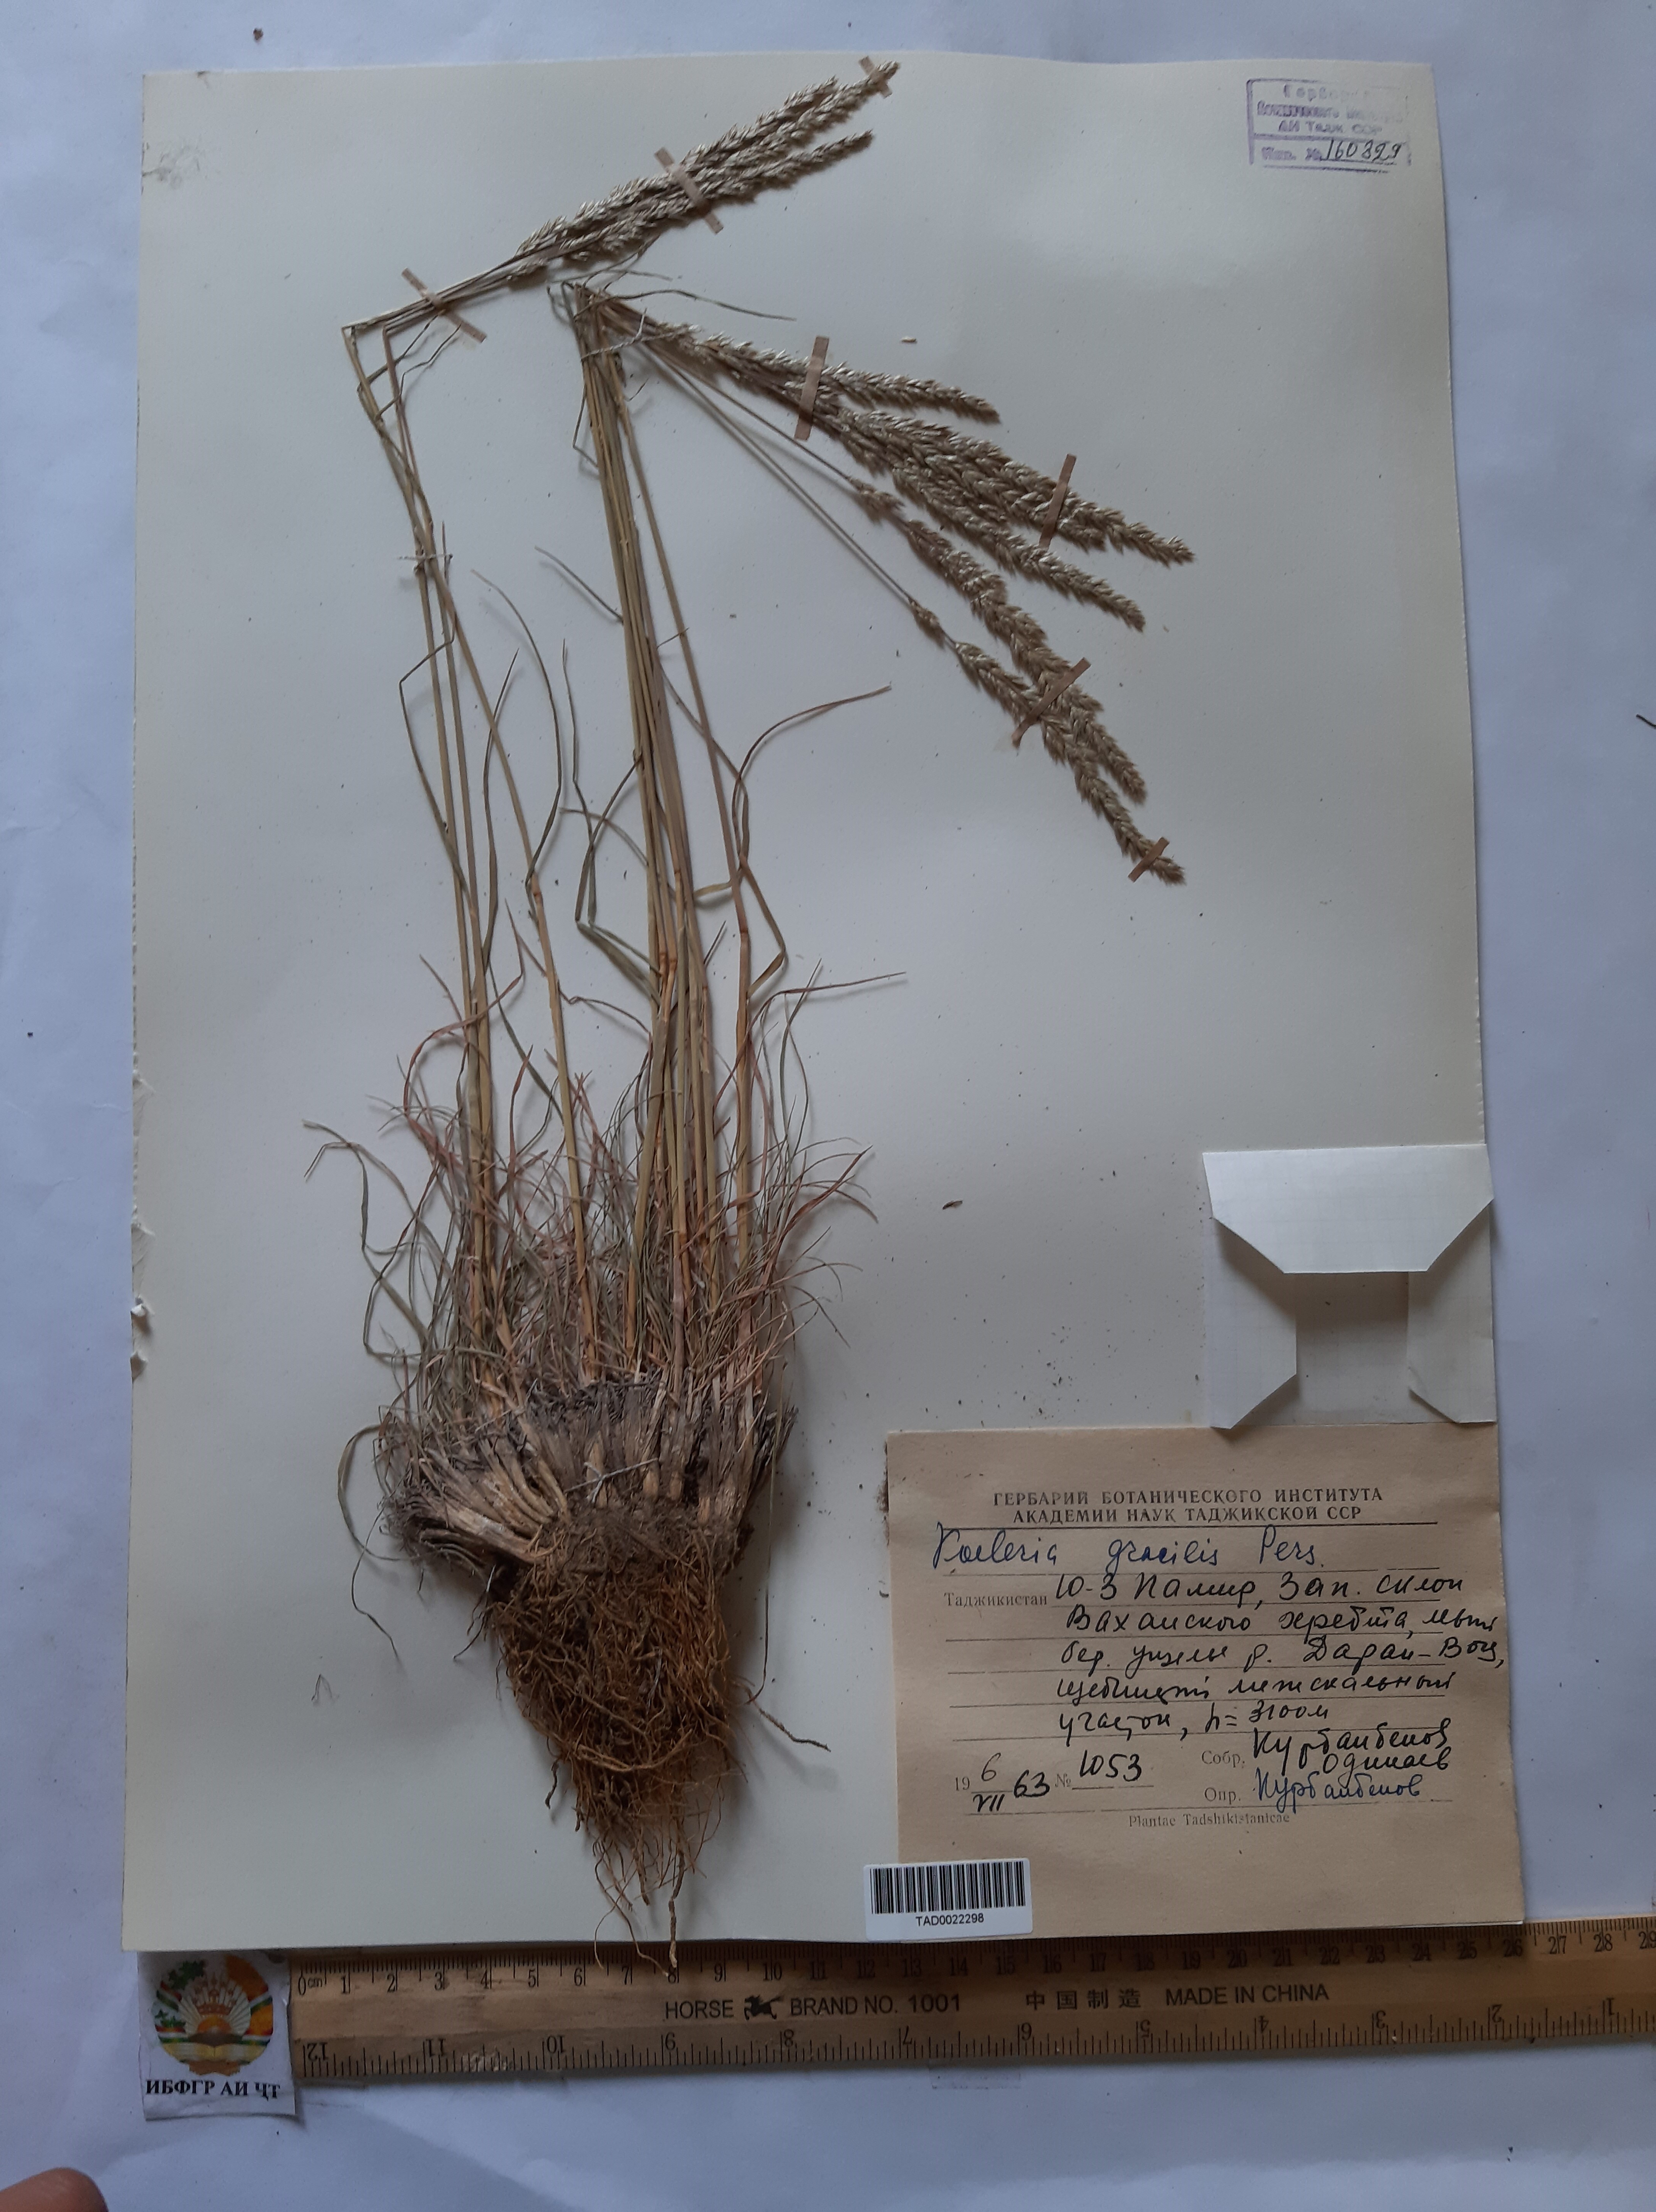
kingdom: Plantae
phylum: Tracheophyta
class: Liliopsida
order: Poales
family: Poaceae
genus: Koeleria
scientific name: Koeleria macrantha
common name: Crested hair-grass
